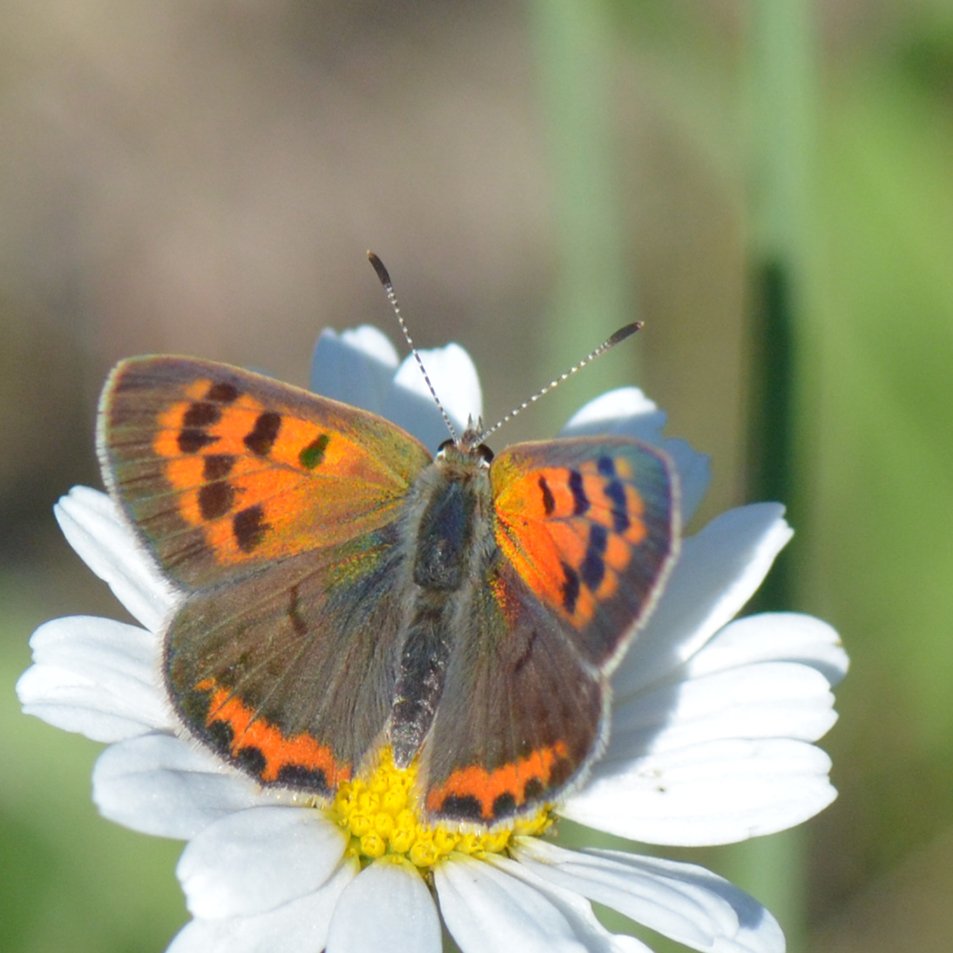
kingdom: Animalia
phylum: Arthropoda
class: Insecta
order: Lepidoptera
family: Lycaenidae
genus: Lycaena
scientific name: Lycaena phlaeas
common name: American Copper
